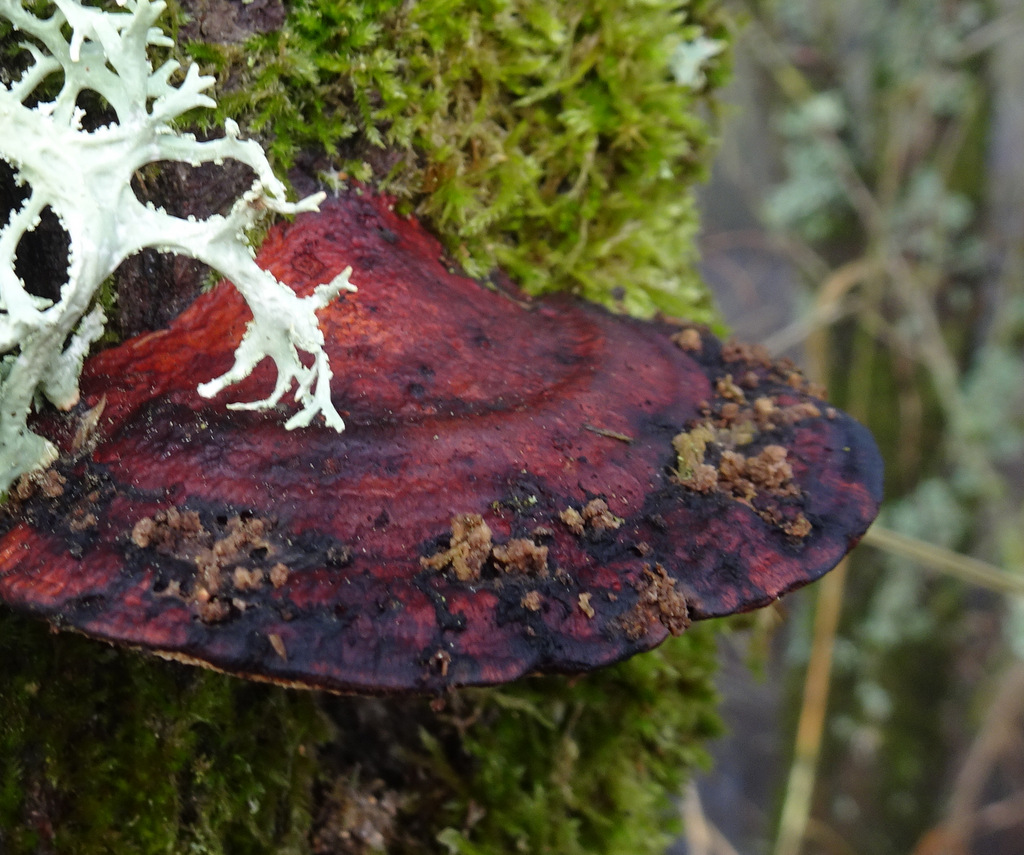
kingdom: Fungi
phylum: Basidiomycota
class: Agaricomycetes
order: Polyporales
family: Polyporaceae
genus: Daedaleopsis
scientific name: Daedaleopsis confragosa
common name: rødmende læderporesvamp
